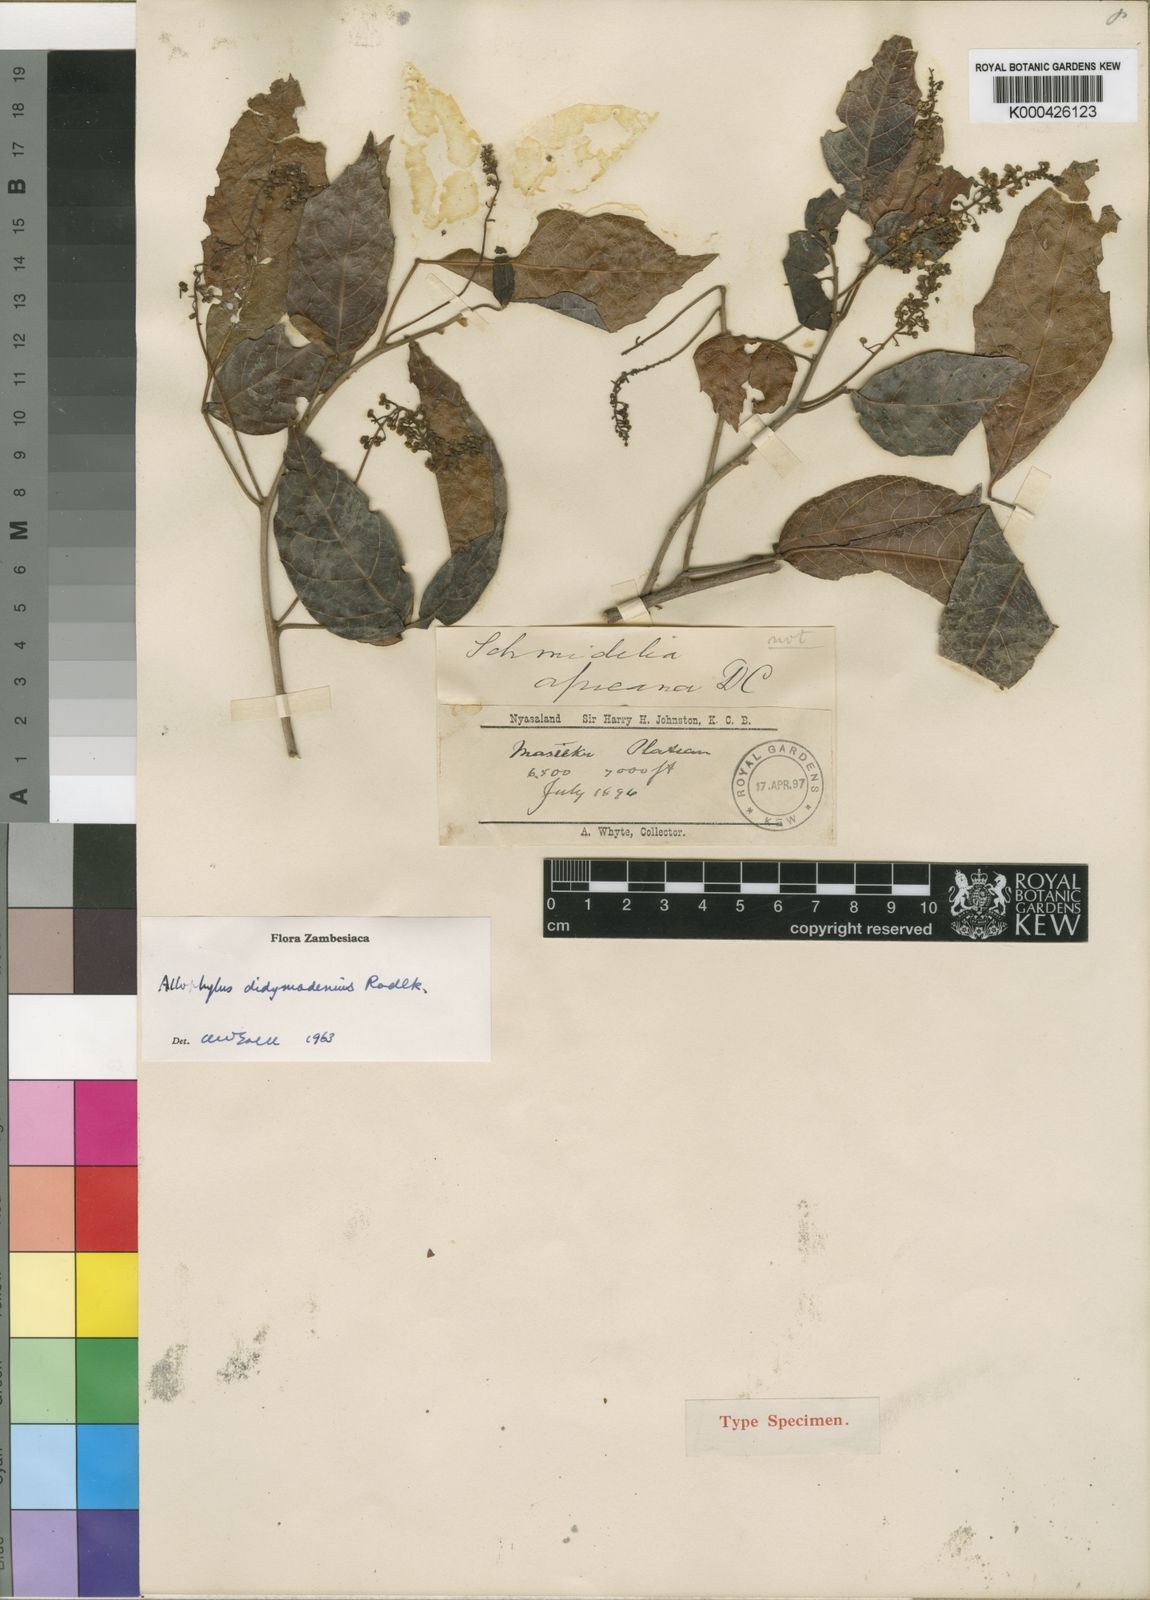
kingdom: Plantae
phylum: Tracheophyta
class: Magnoliopsida
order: Sapindales
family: Sapindaceae
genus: Allophylus
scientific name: Allophylus chaunostachys
